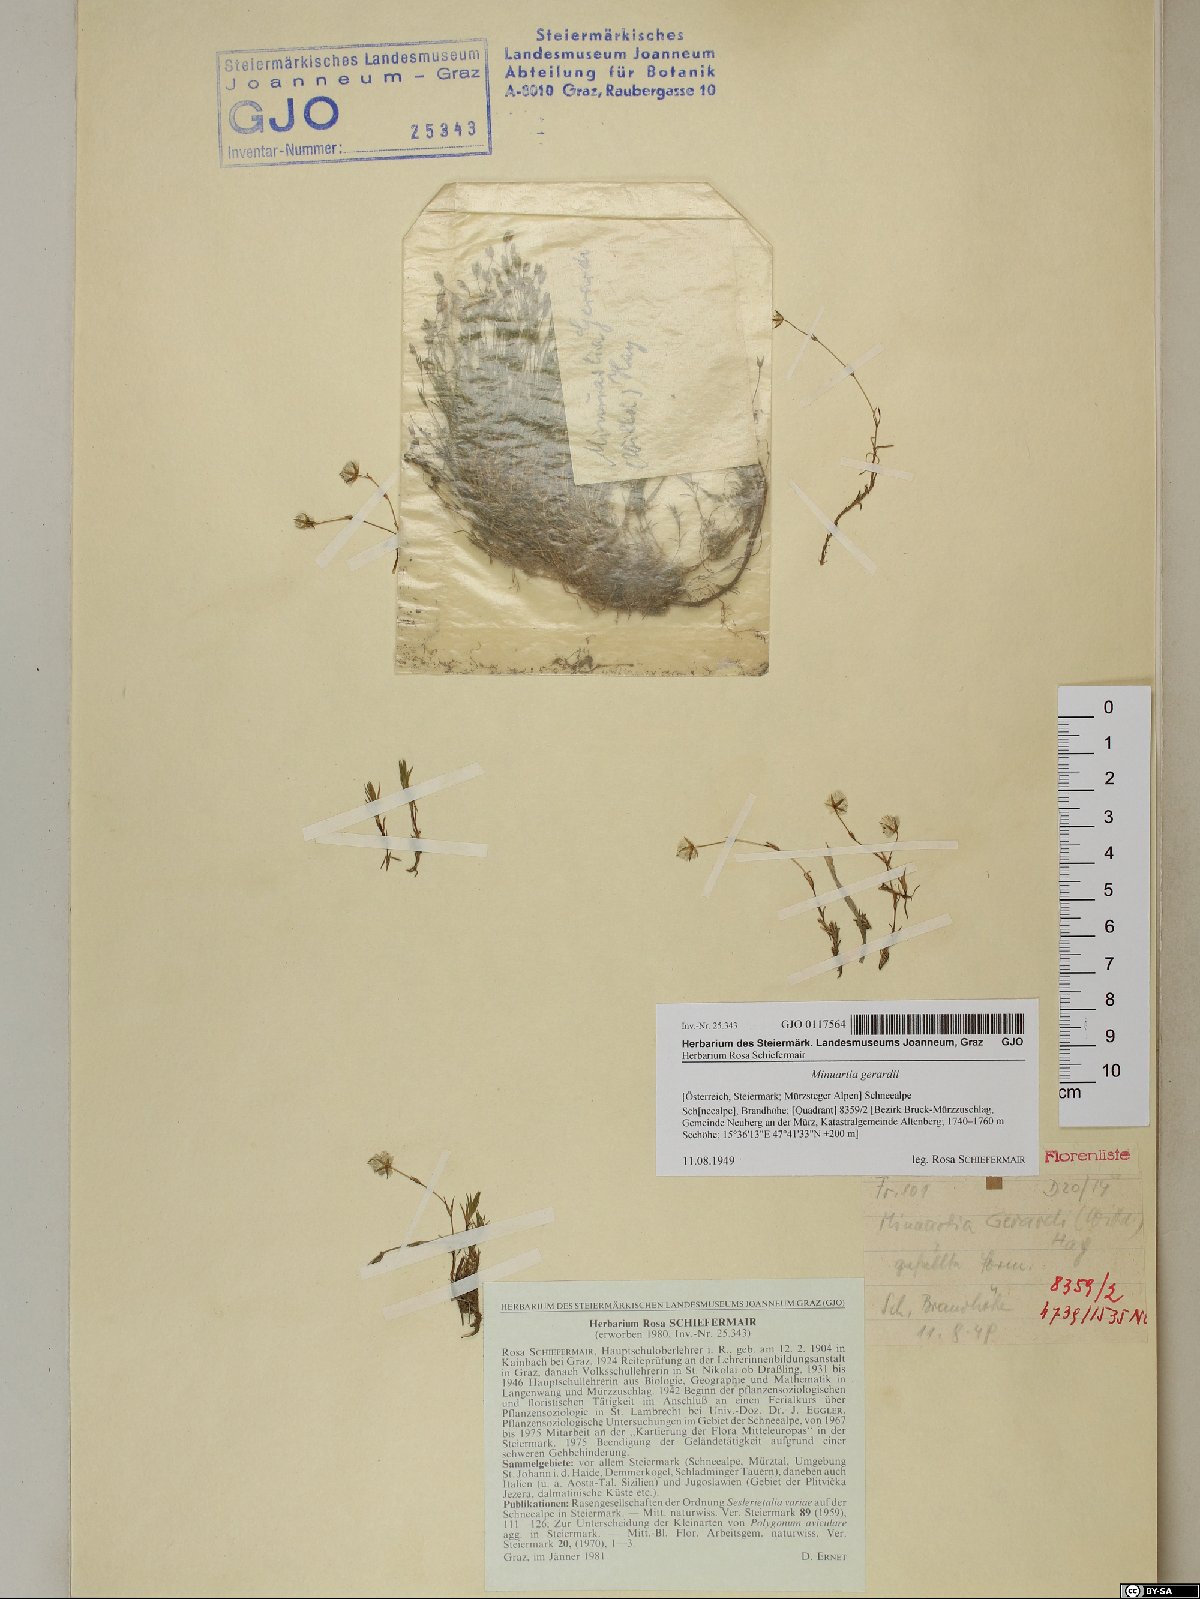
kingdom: Plantae
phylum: Tracheophyta
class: Magnoliopsida
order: Caryophyllales
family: Caryophyllaceae
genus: Sabulina
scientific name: Sabulina verna
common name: Spring sandwort
